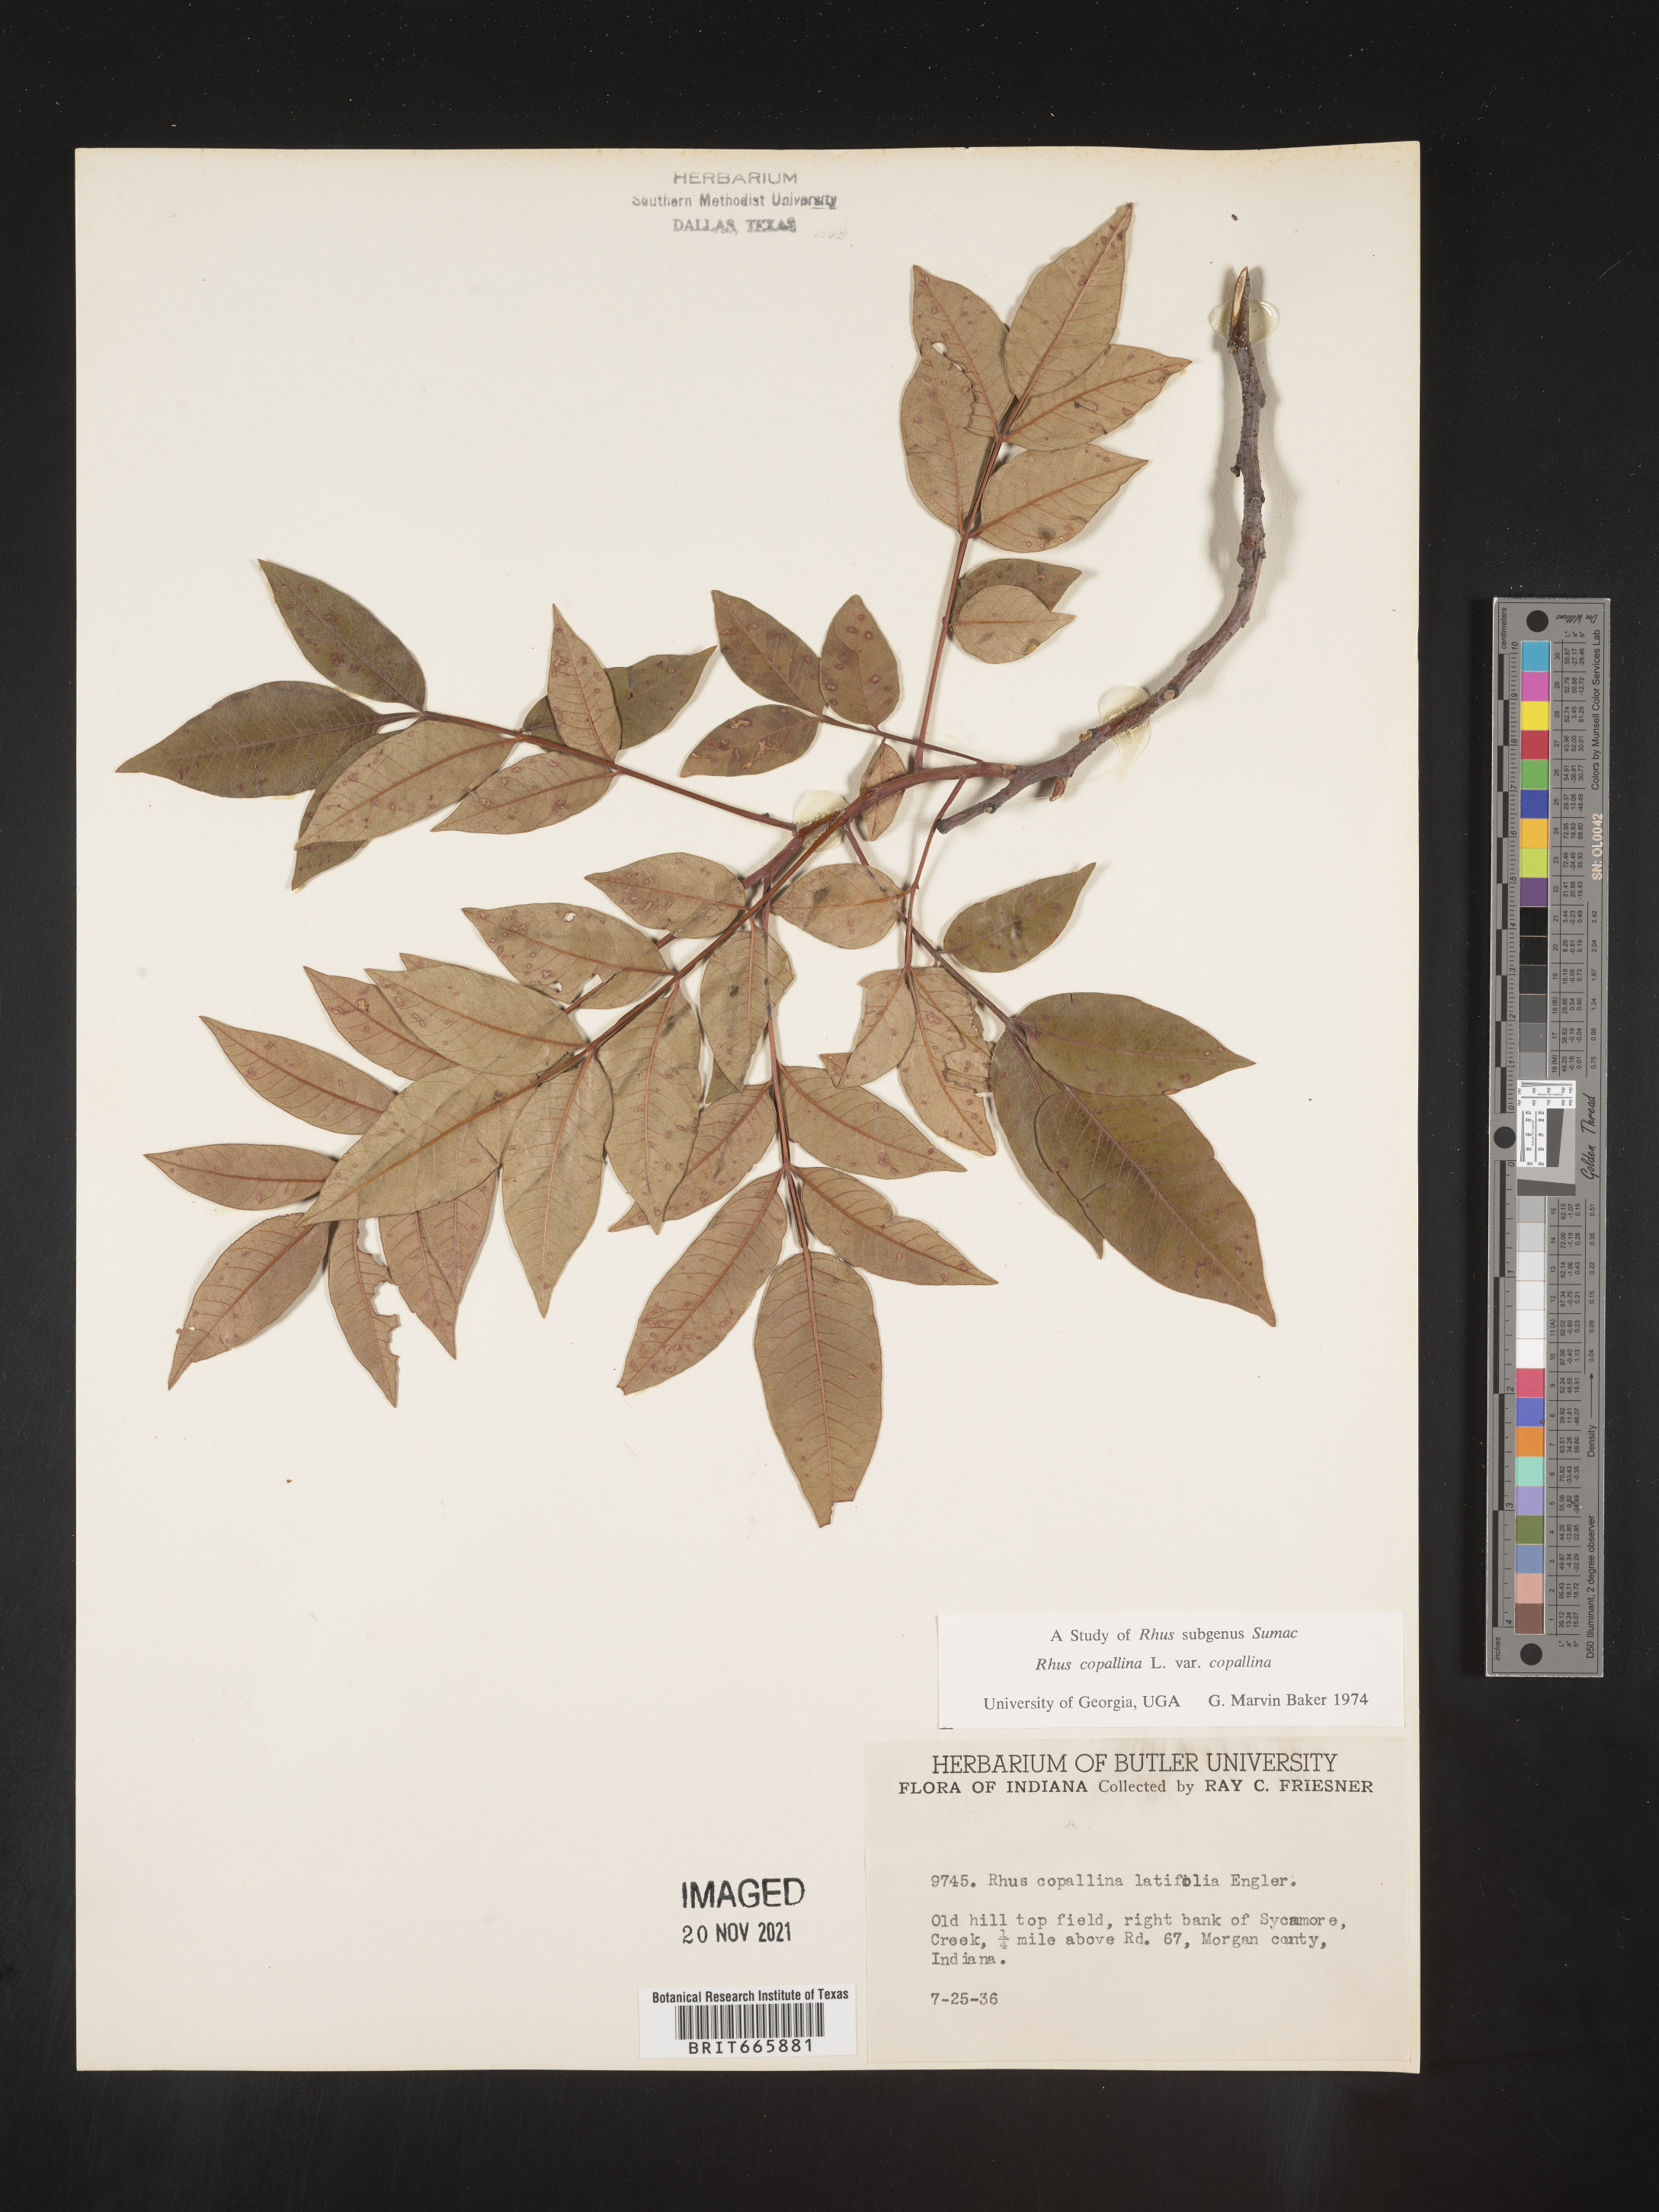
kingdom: Plantae
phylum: Tracheophyta
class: Magnoliopsida
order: Sapindales
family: Anacardiaceae
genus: Rhus
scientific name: Rhus copallina
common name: Shining sumac
